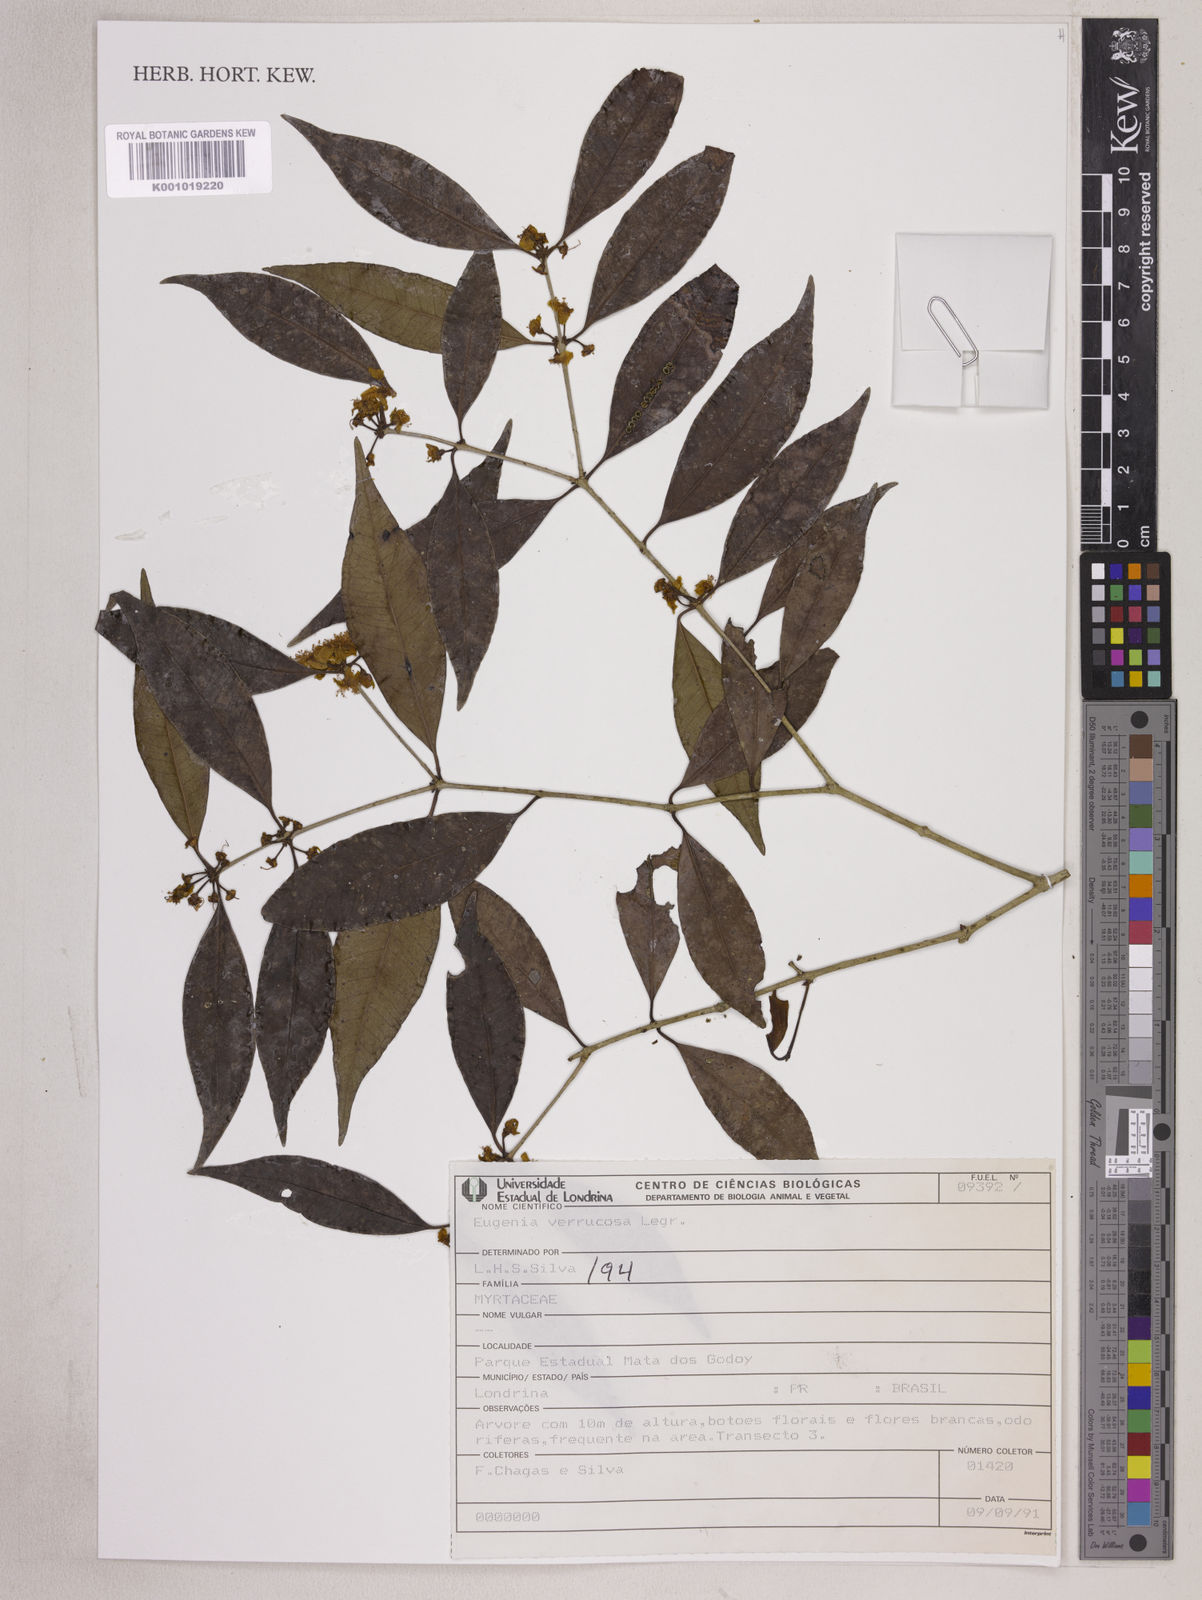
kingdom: Plantae
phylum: Tracheophyta
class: Magnoliopsida
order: Myrtales
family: Myrtaceae
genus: Eugenia
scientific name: Eugenia neoverrucosa
